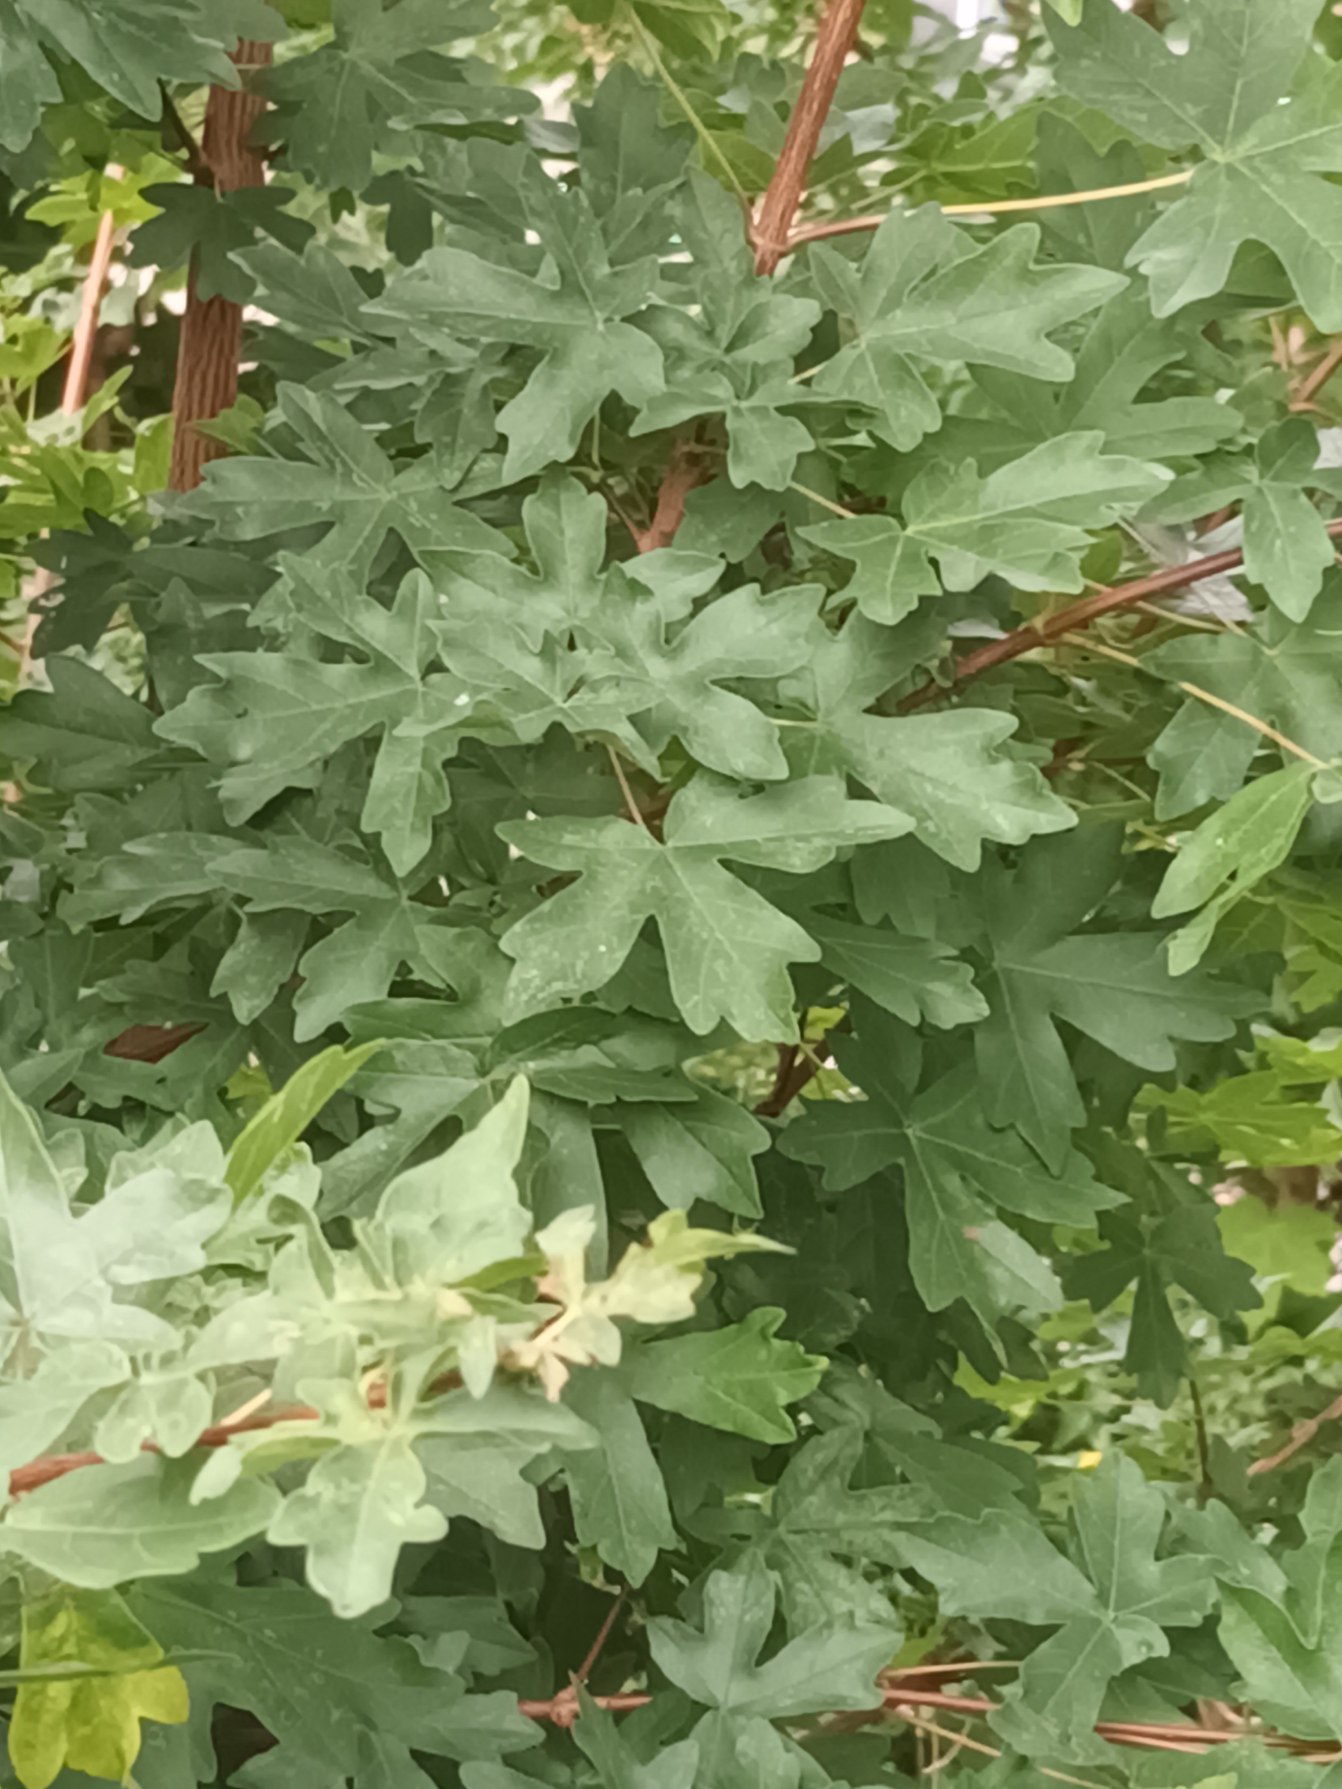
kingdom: Plantae
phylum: Tracheophyta
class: Magnoliopsida
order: Sapindales
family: Sapindaceae
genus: Acer
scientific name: Acer campestre
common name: Navr
